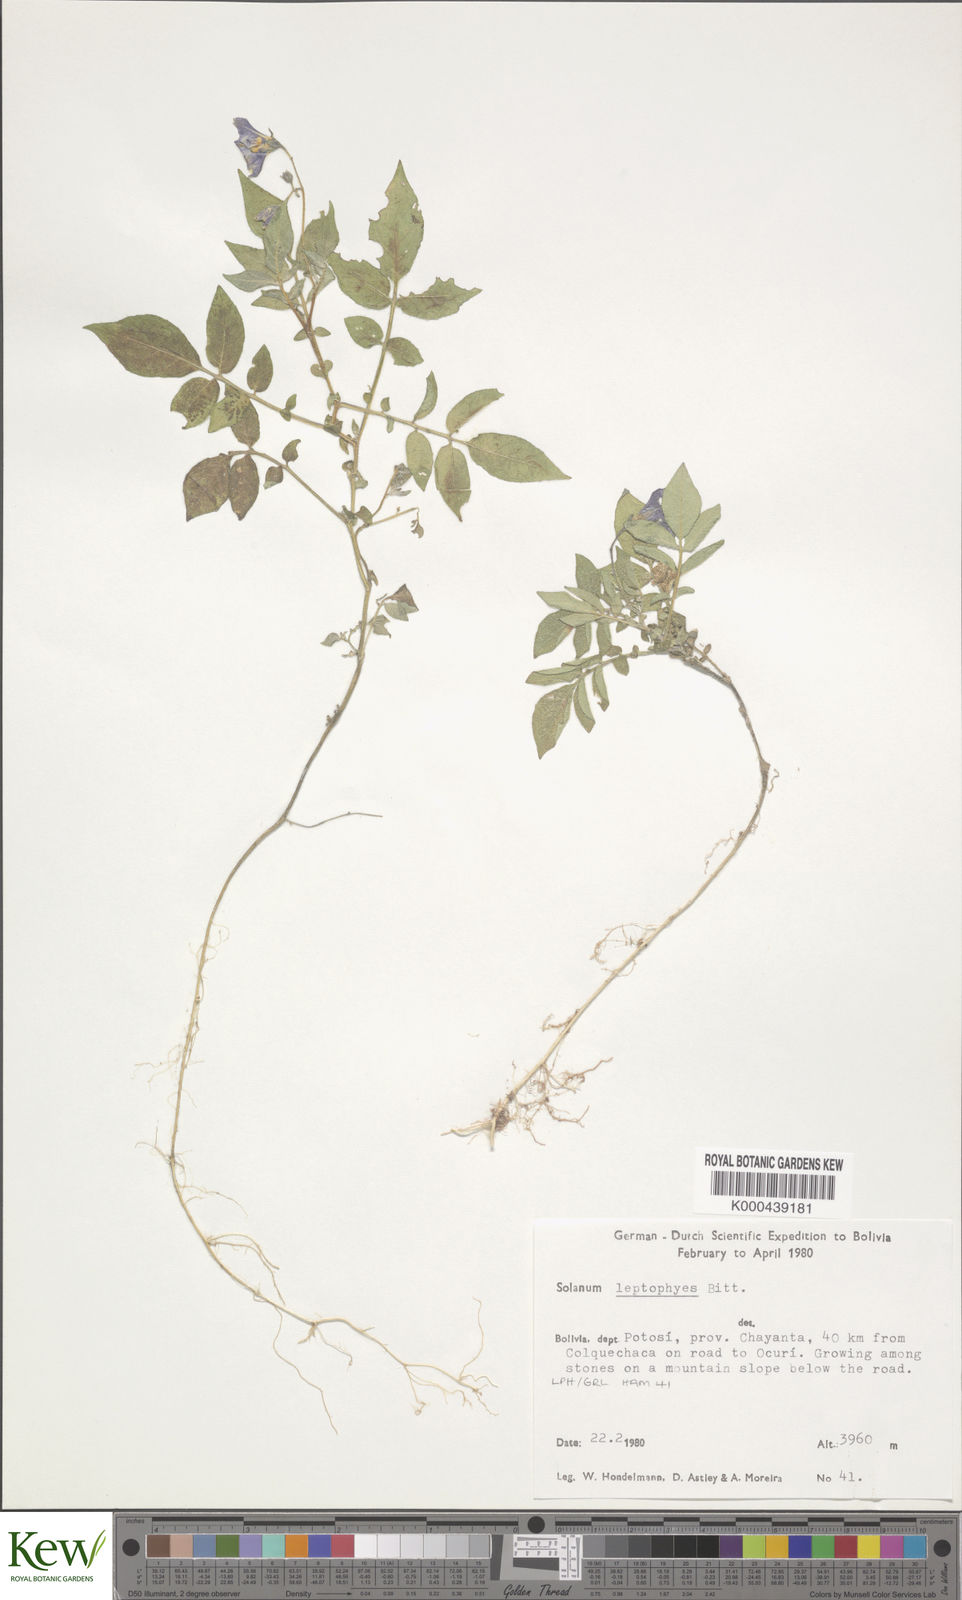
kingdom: Plantae
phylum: Tracheophyta
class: Magnoliopsida
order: Solanales
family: Solanaceae
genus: Solanum
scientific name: Solanum brevicaule
